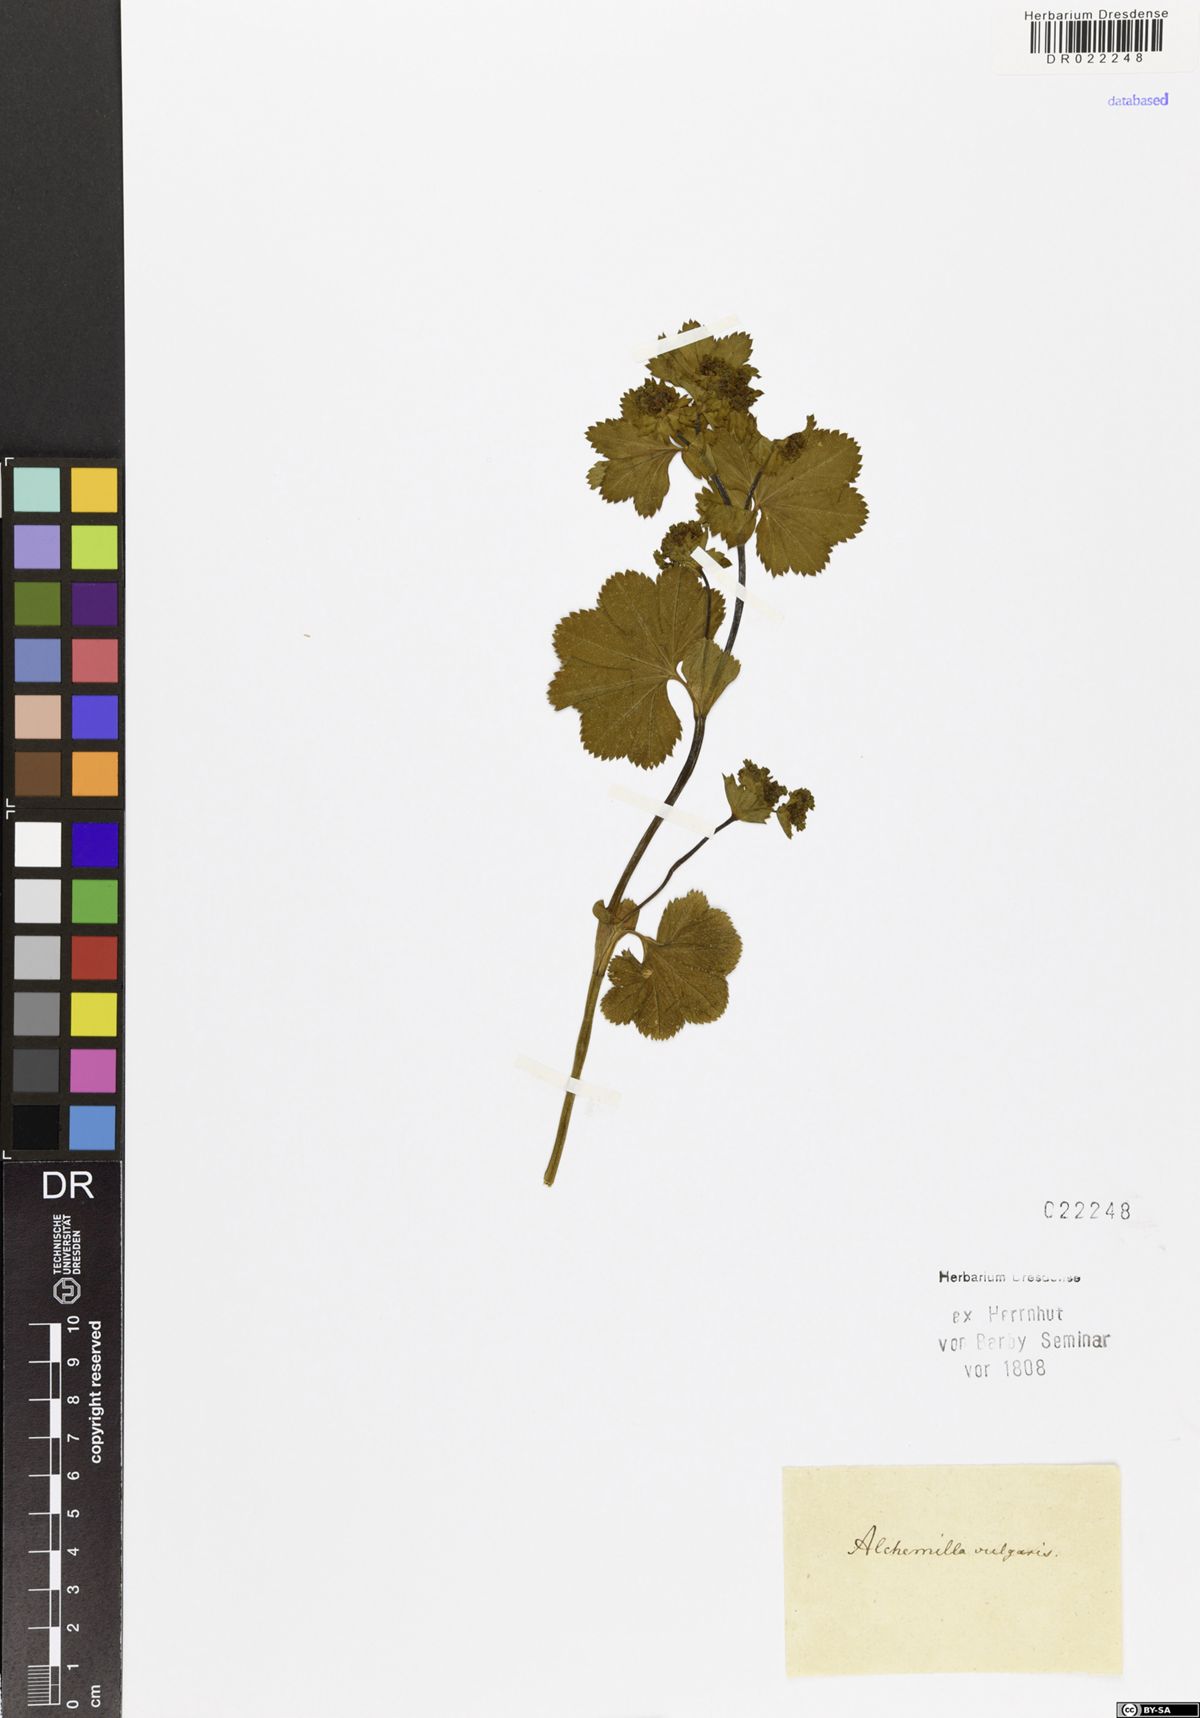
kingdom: Plantae
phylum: Tracheophyta
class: Magnoliopsida
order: Rosales
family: Rosaceae
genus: Alchemilla
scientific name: Alchemilla vulgaris
